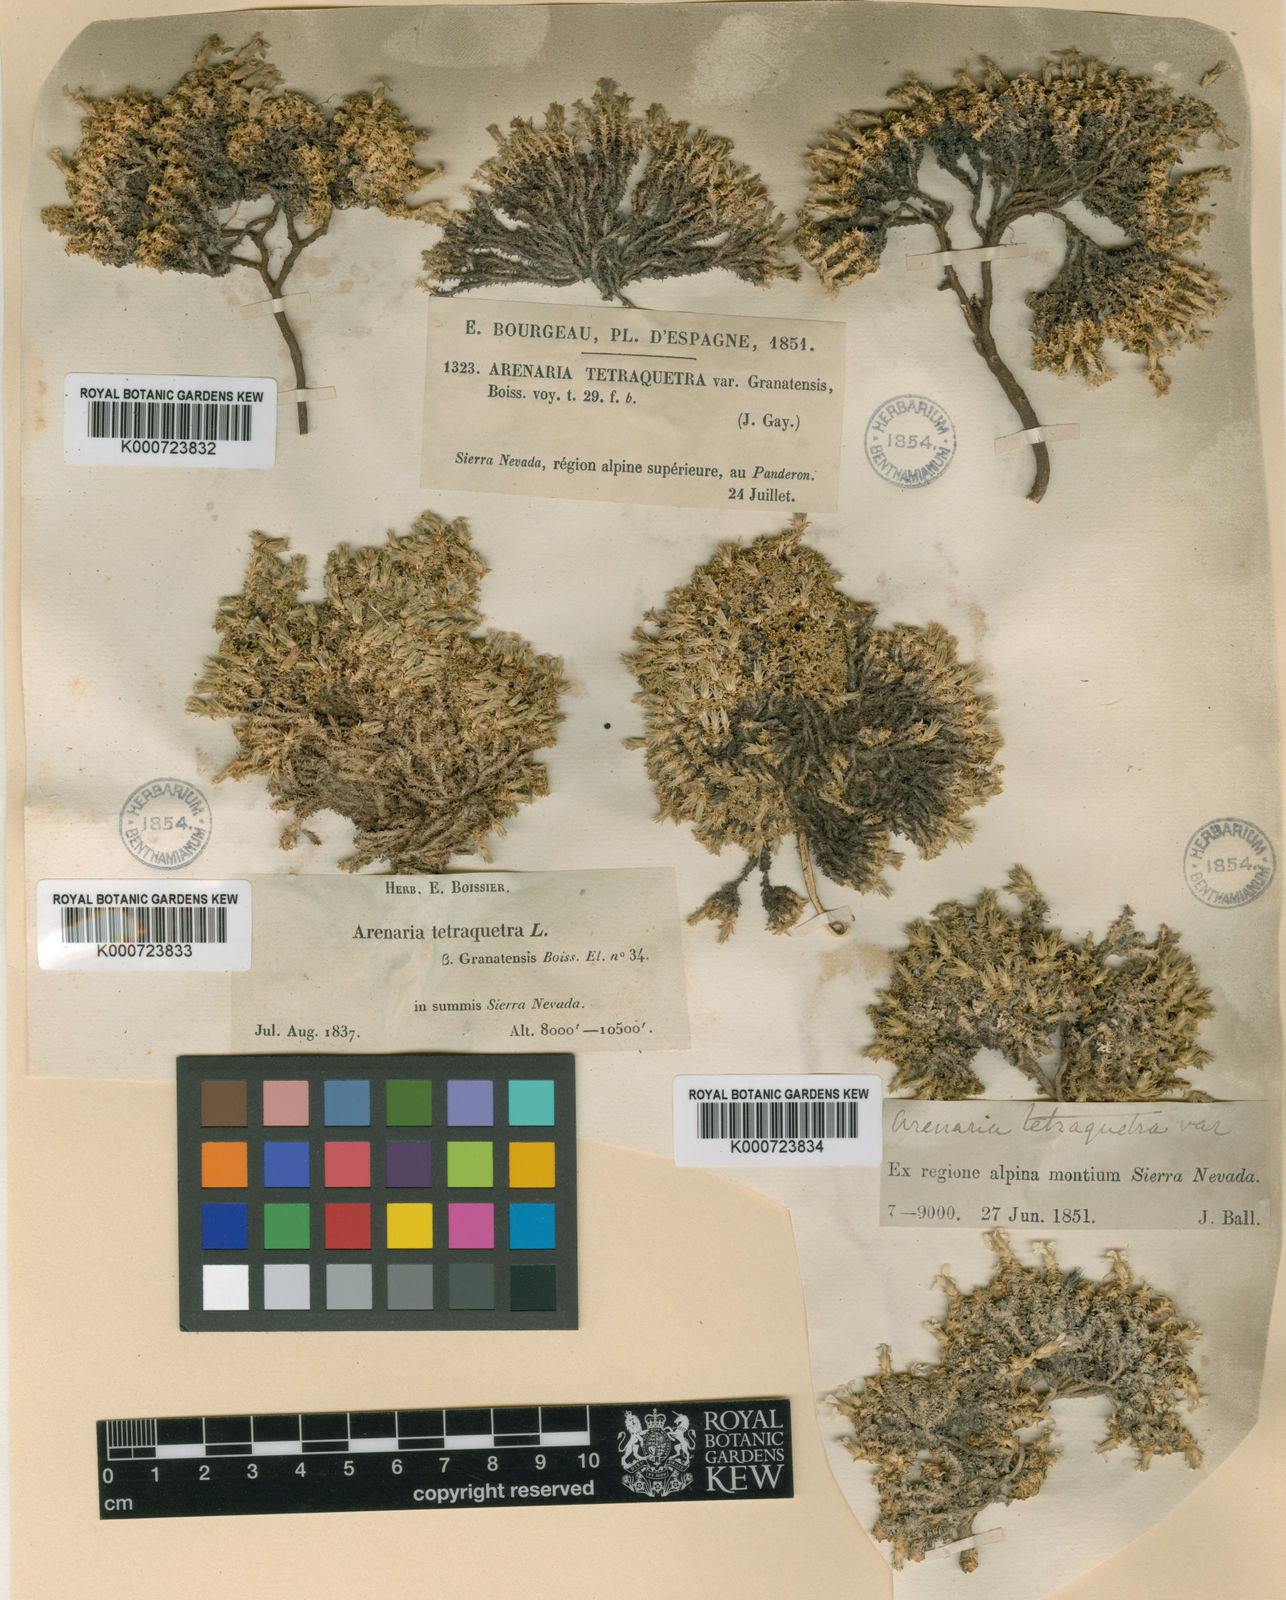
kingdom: Plantae
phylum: Tracheophyta
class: Magnoliopsida
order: Caryophyllales
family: Caryophyllaceae
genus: Arenaria
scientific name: Arenaria tetraquetra
